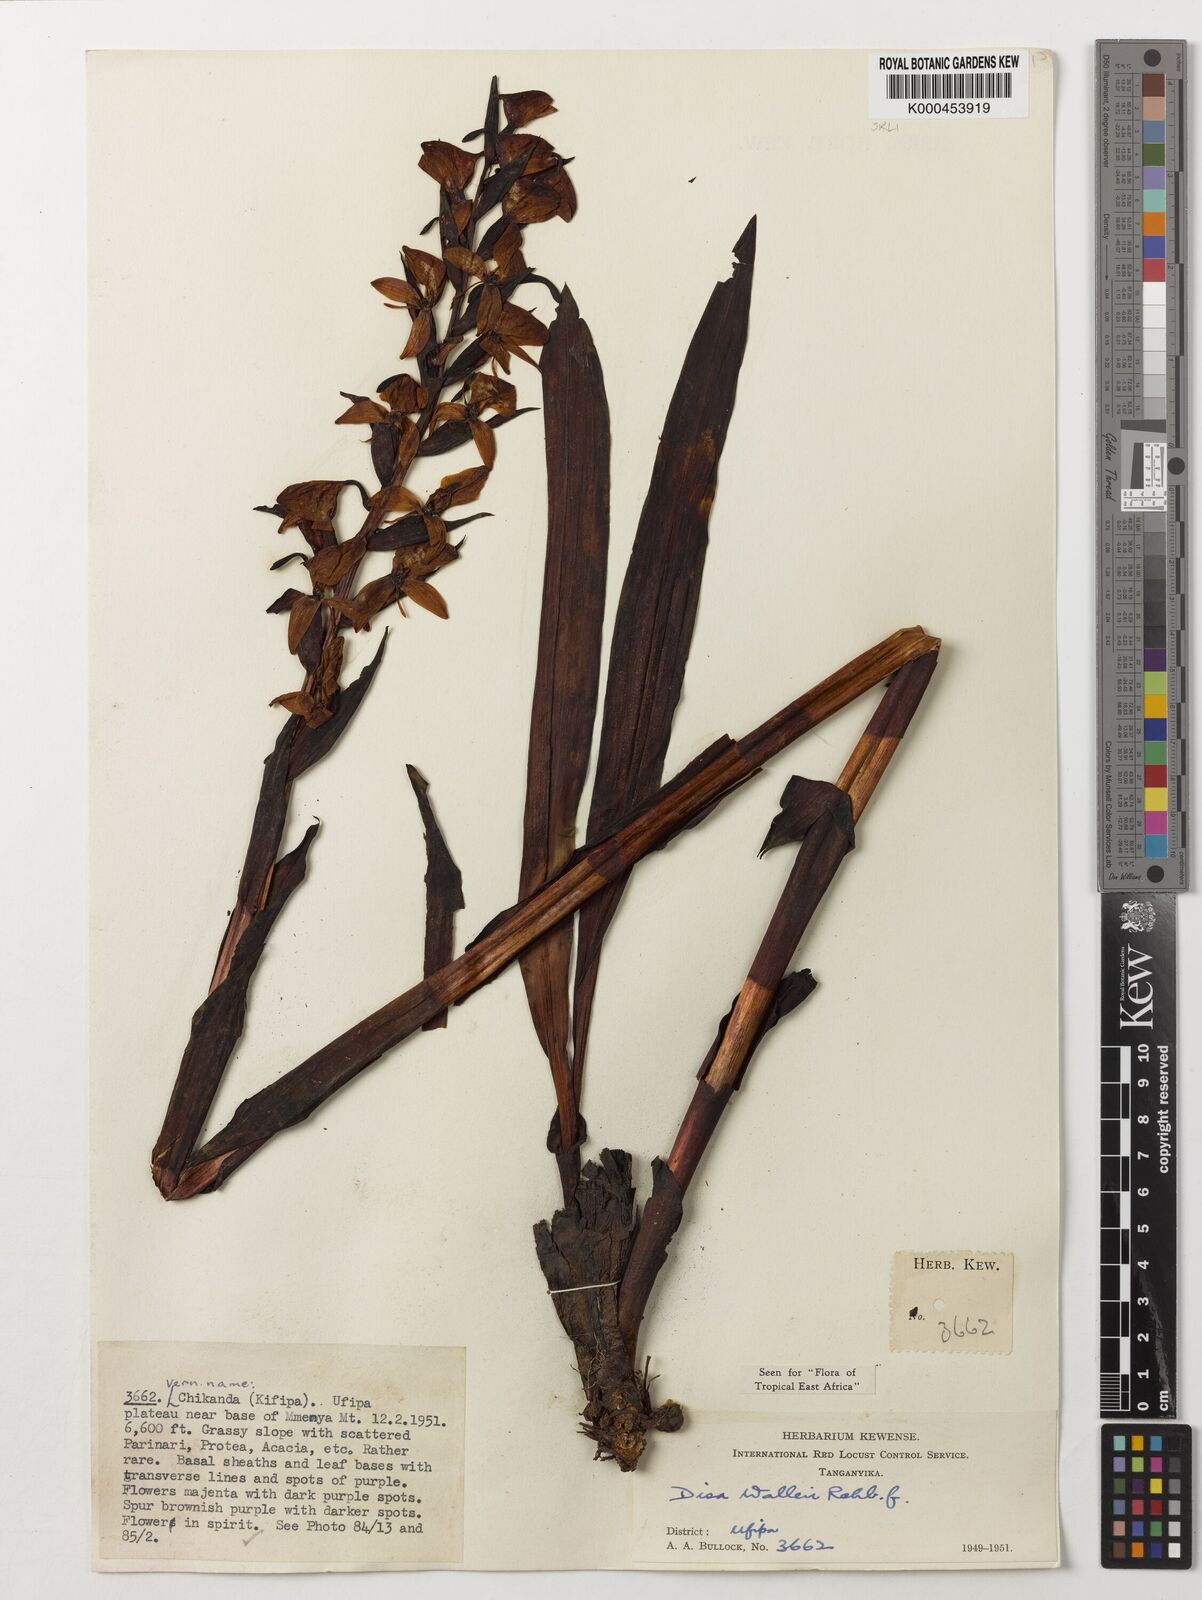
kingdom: Plantae
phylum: Tracheophyta
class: Liliopsida
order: Asparagales
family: Orchidaceae
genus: Disa
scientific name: Disa walleri
